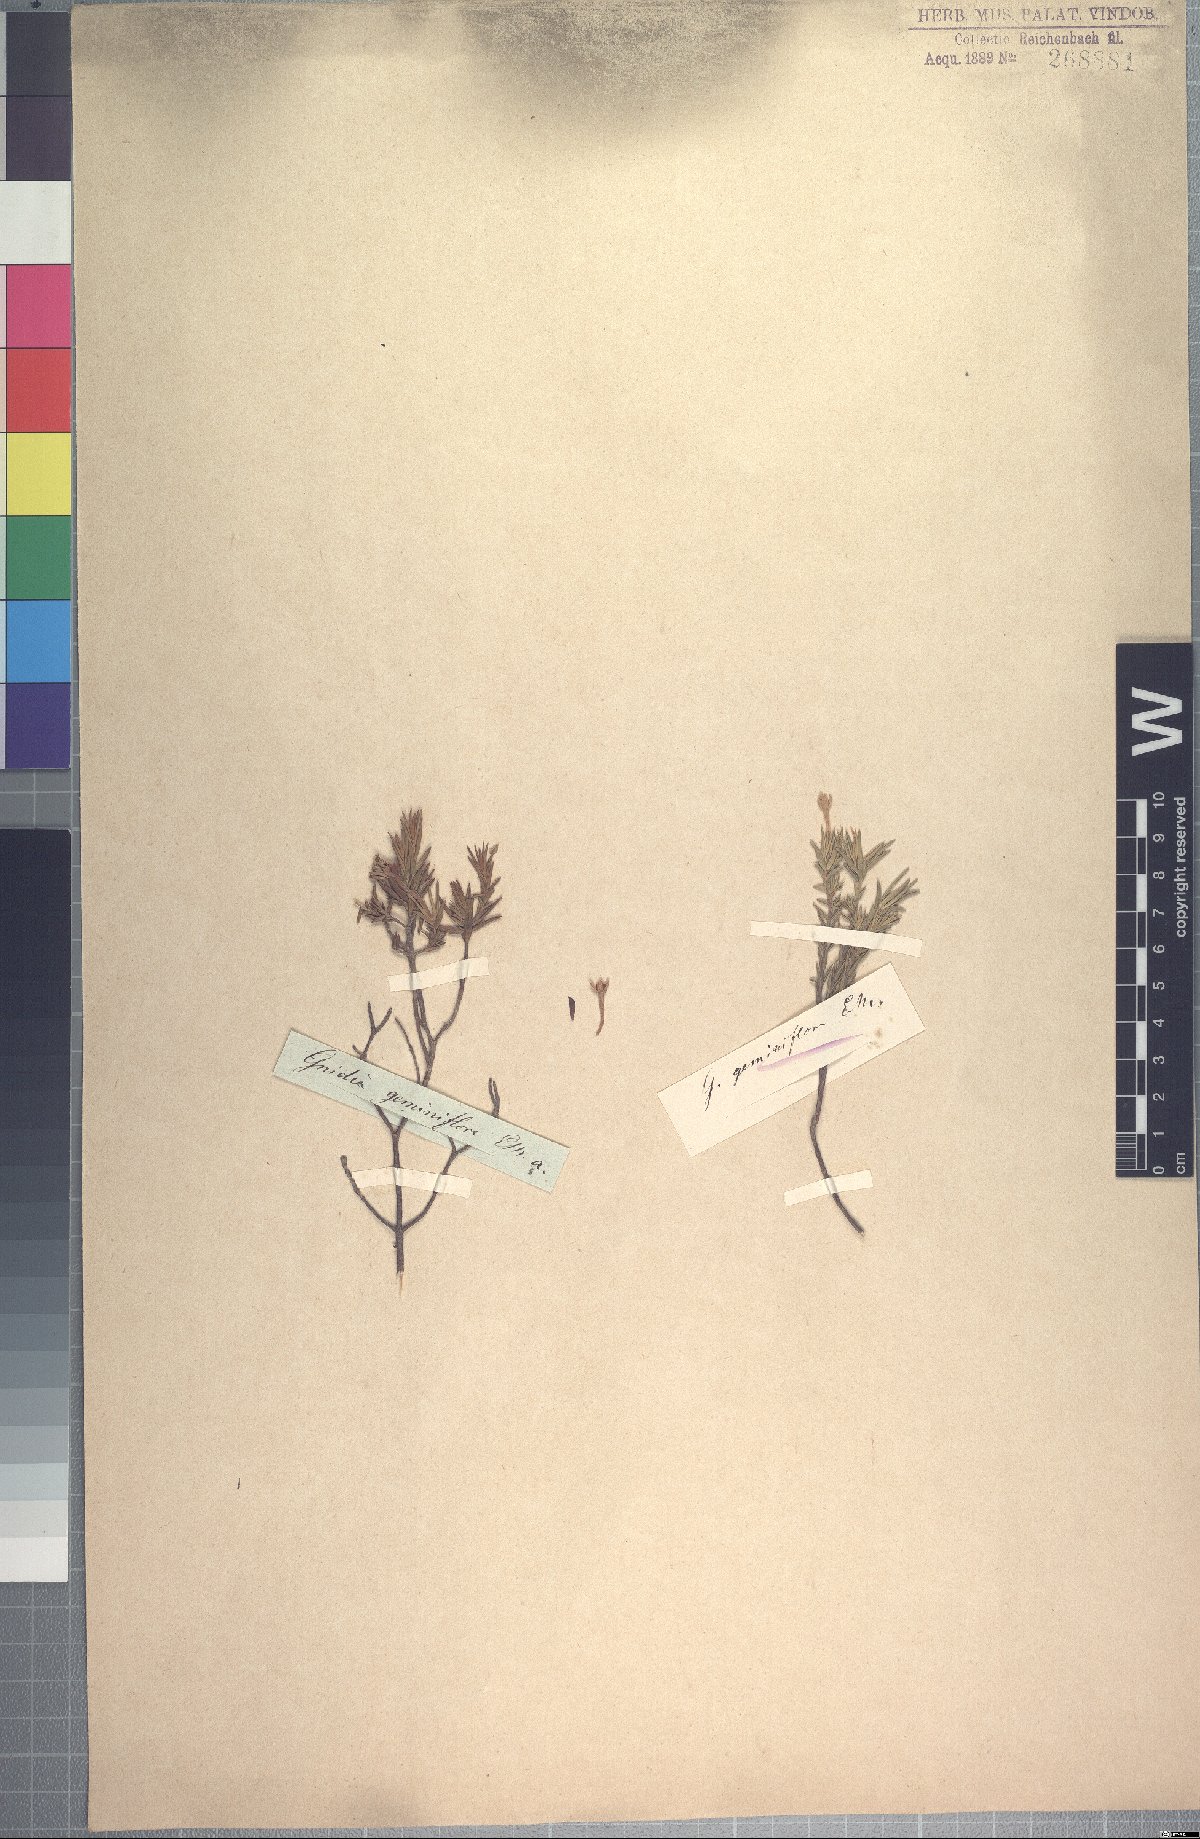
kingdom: Plantae
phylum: Tracheophyta
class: Magnoliopsida
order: Malvales
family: Thymelaeaceae
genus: Gnidia
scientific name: Gnidia geminiflora
